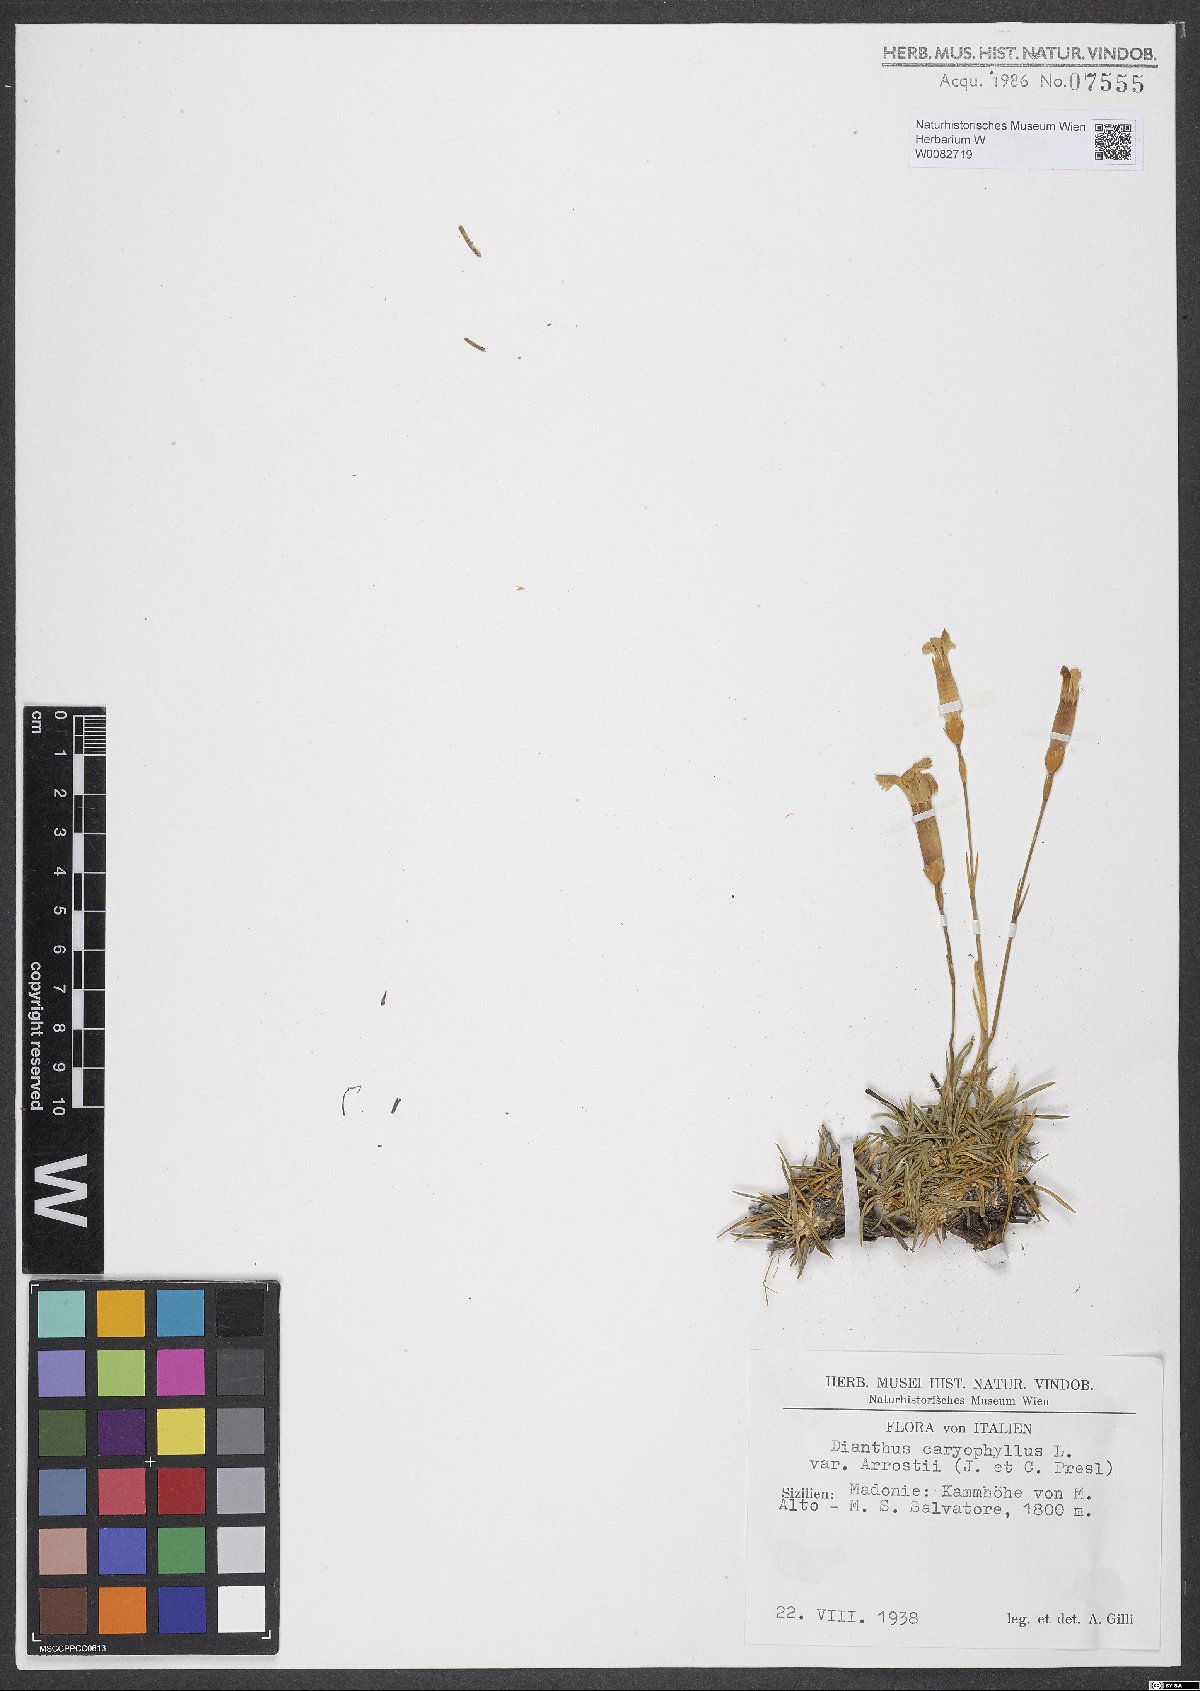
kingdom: Plantae
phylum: Tracheophyta
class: Magnoliopsida
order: Caryophyllales
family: Caryophyllaceae
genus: Dianthus
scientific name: Dianthus arrostii
